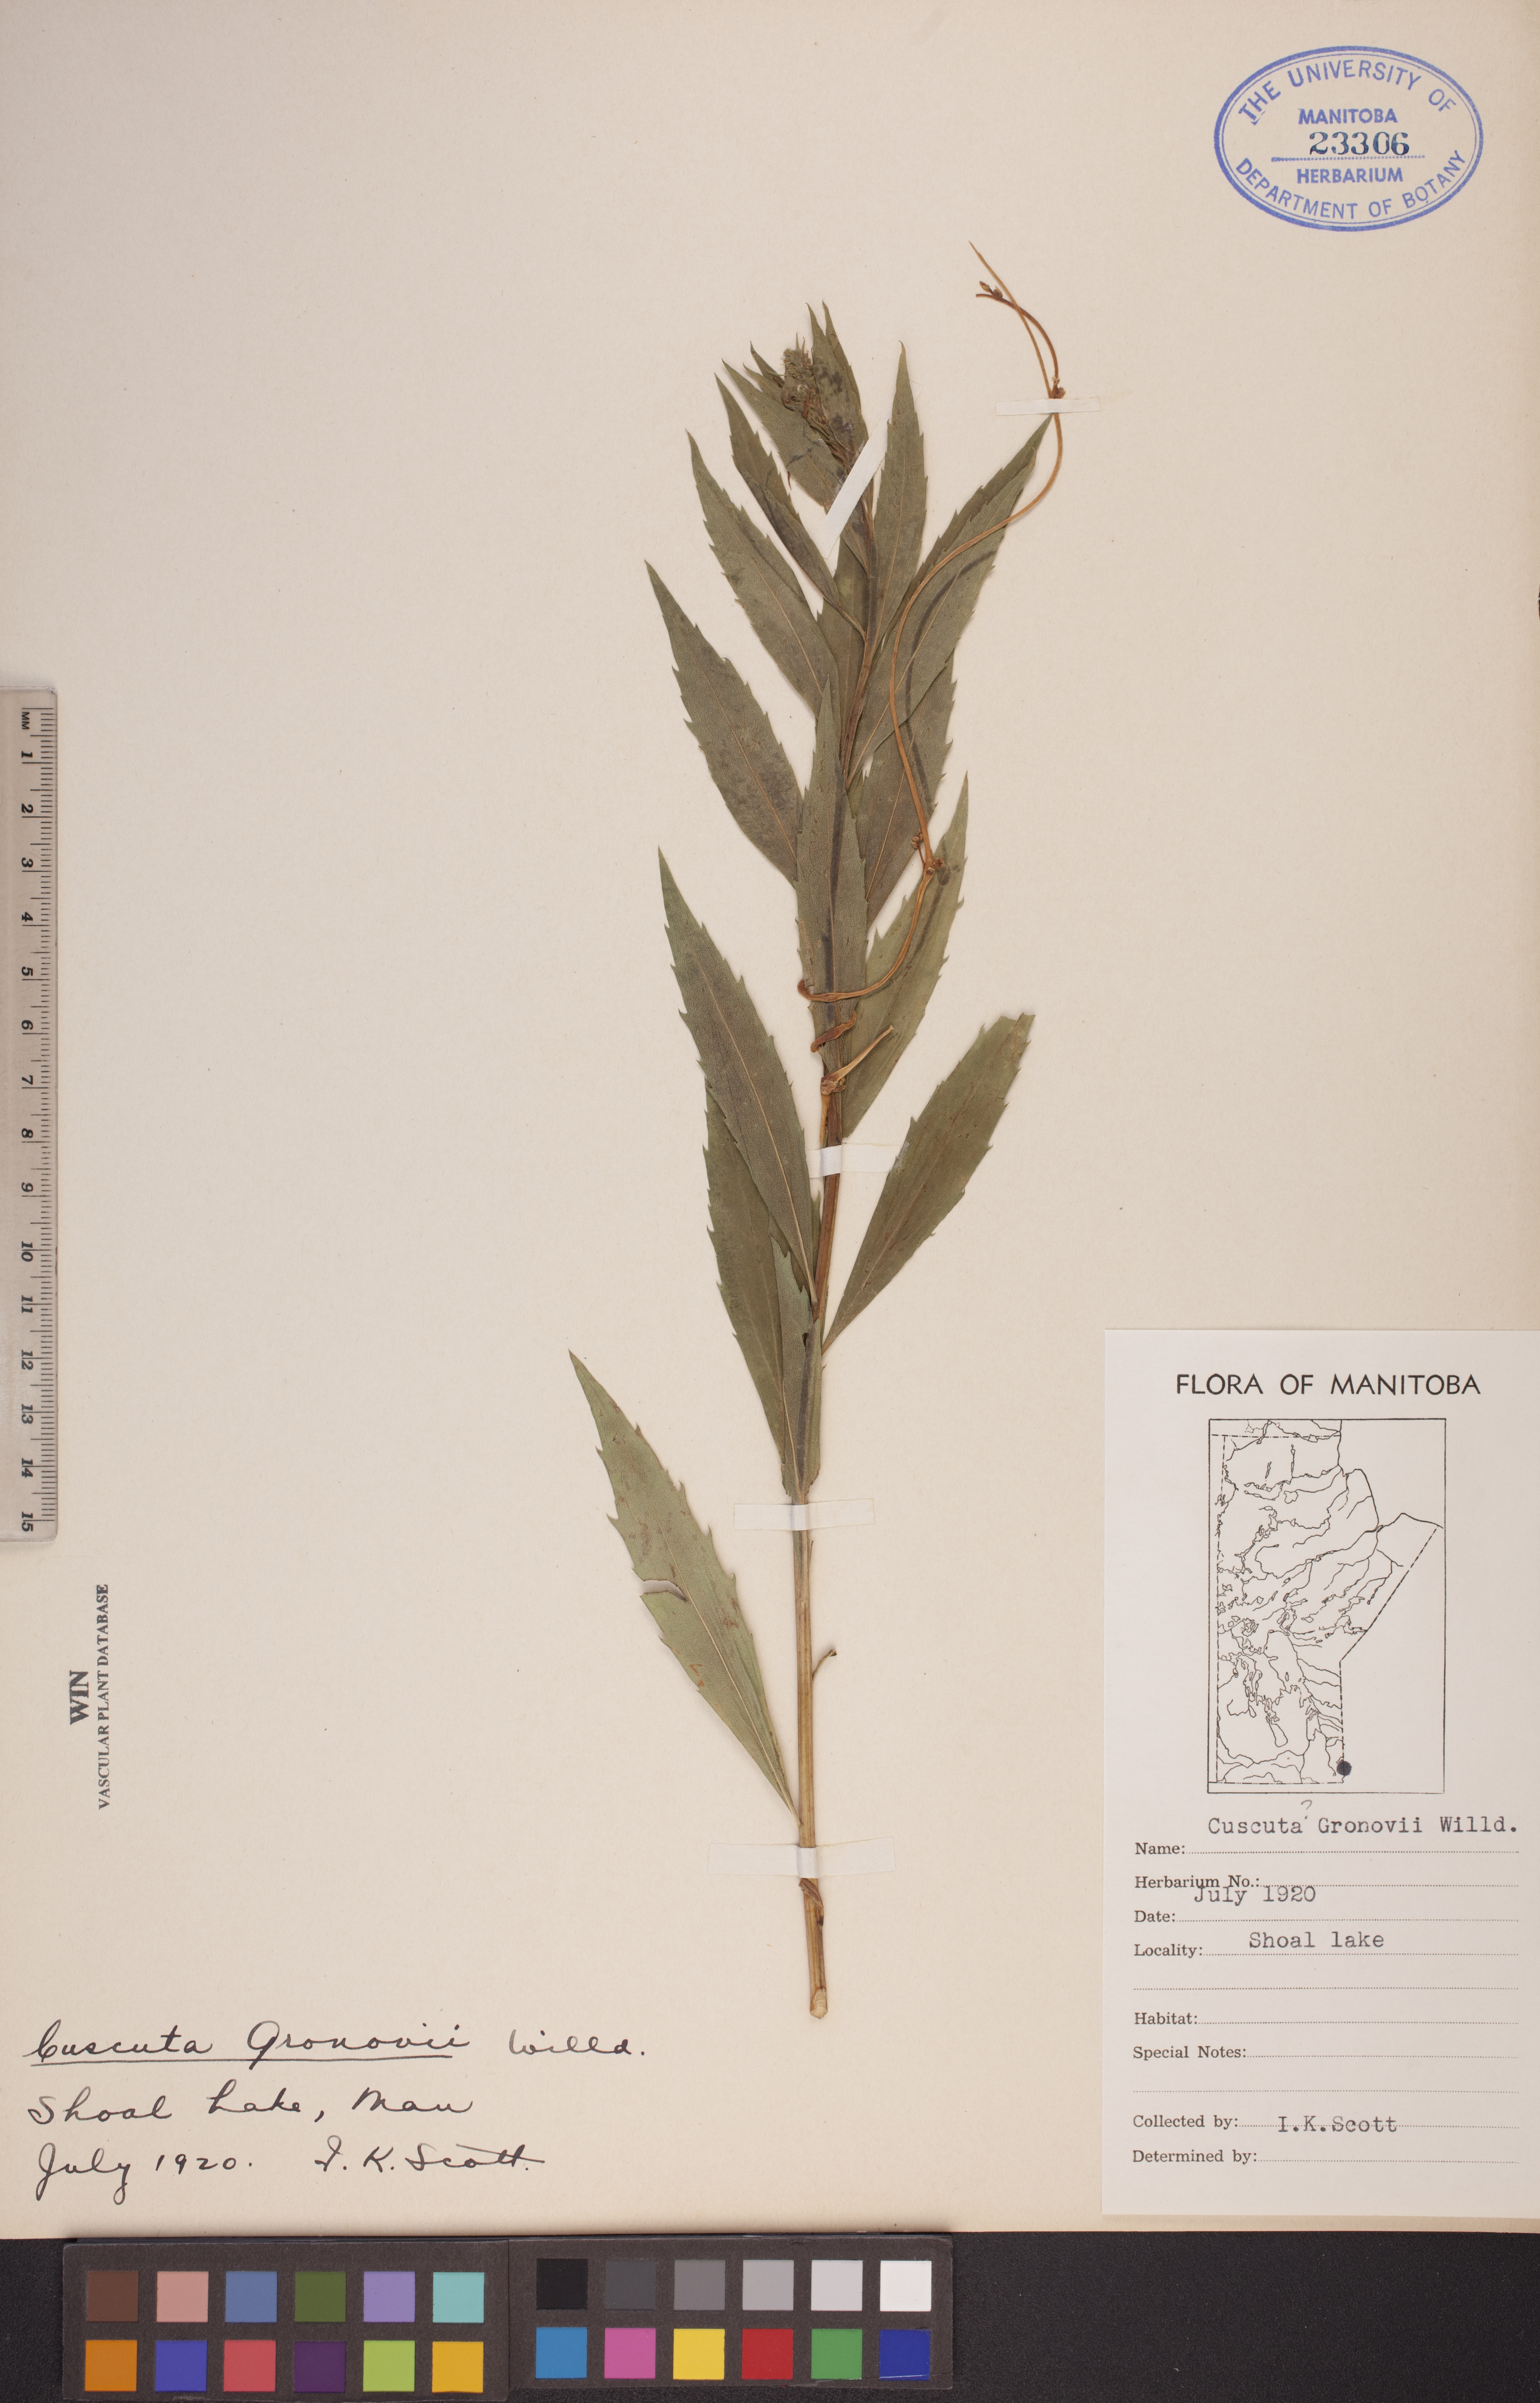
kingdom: Plantae
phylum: Tracheophyta
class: Magnoliopsida
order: Solanales
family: Convolvulaceae
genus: Cuscuta
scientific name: Cuscuta gronovii
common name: Common dodder
